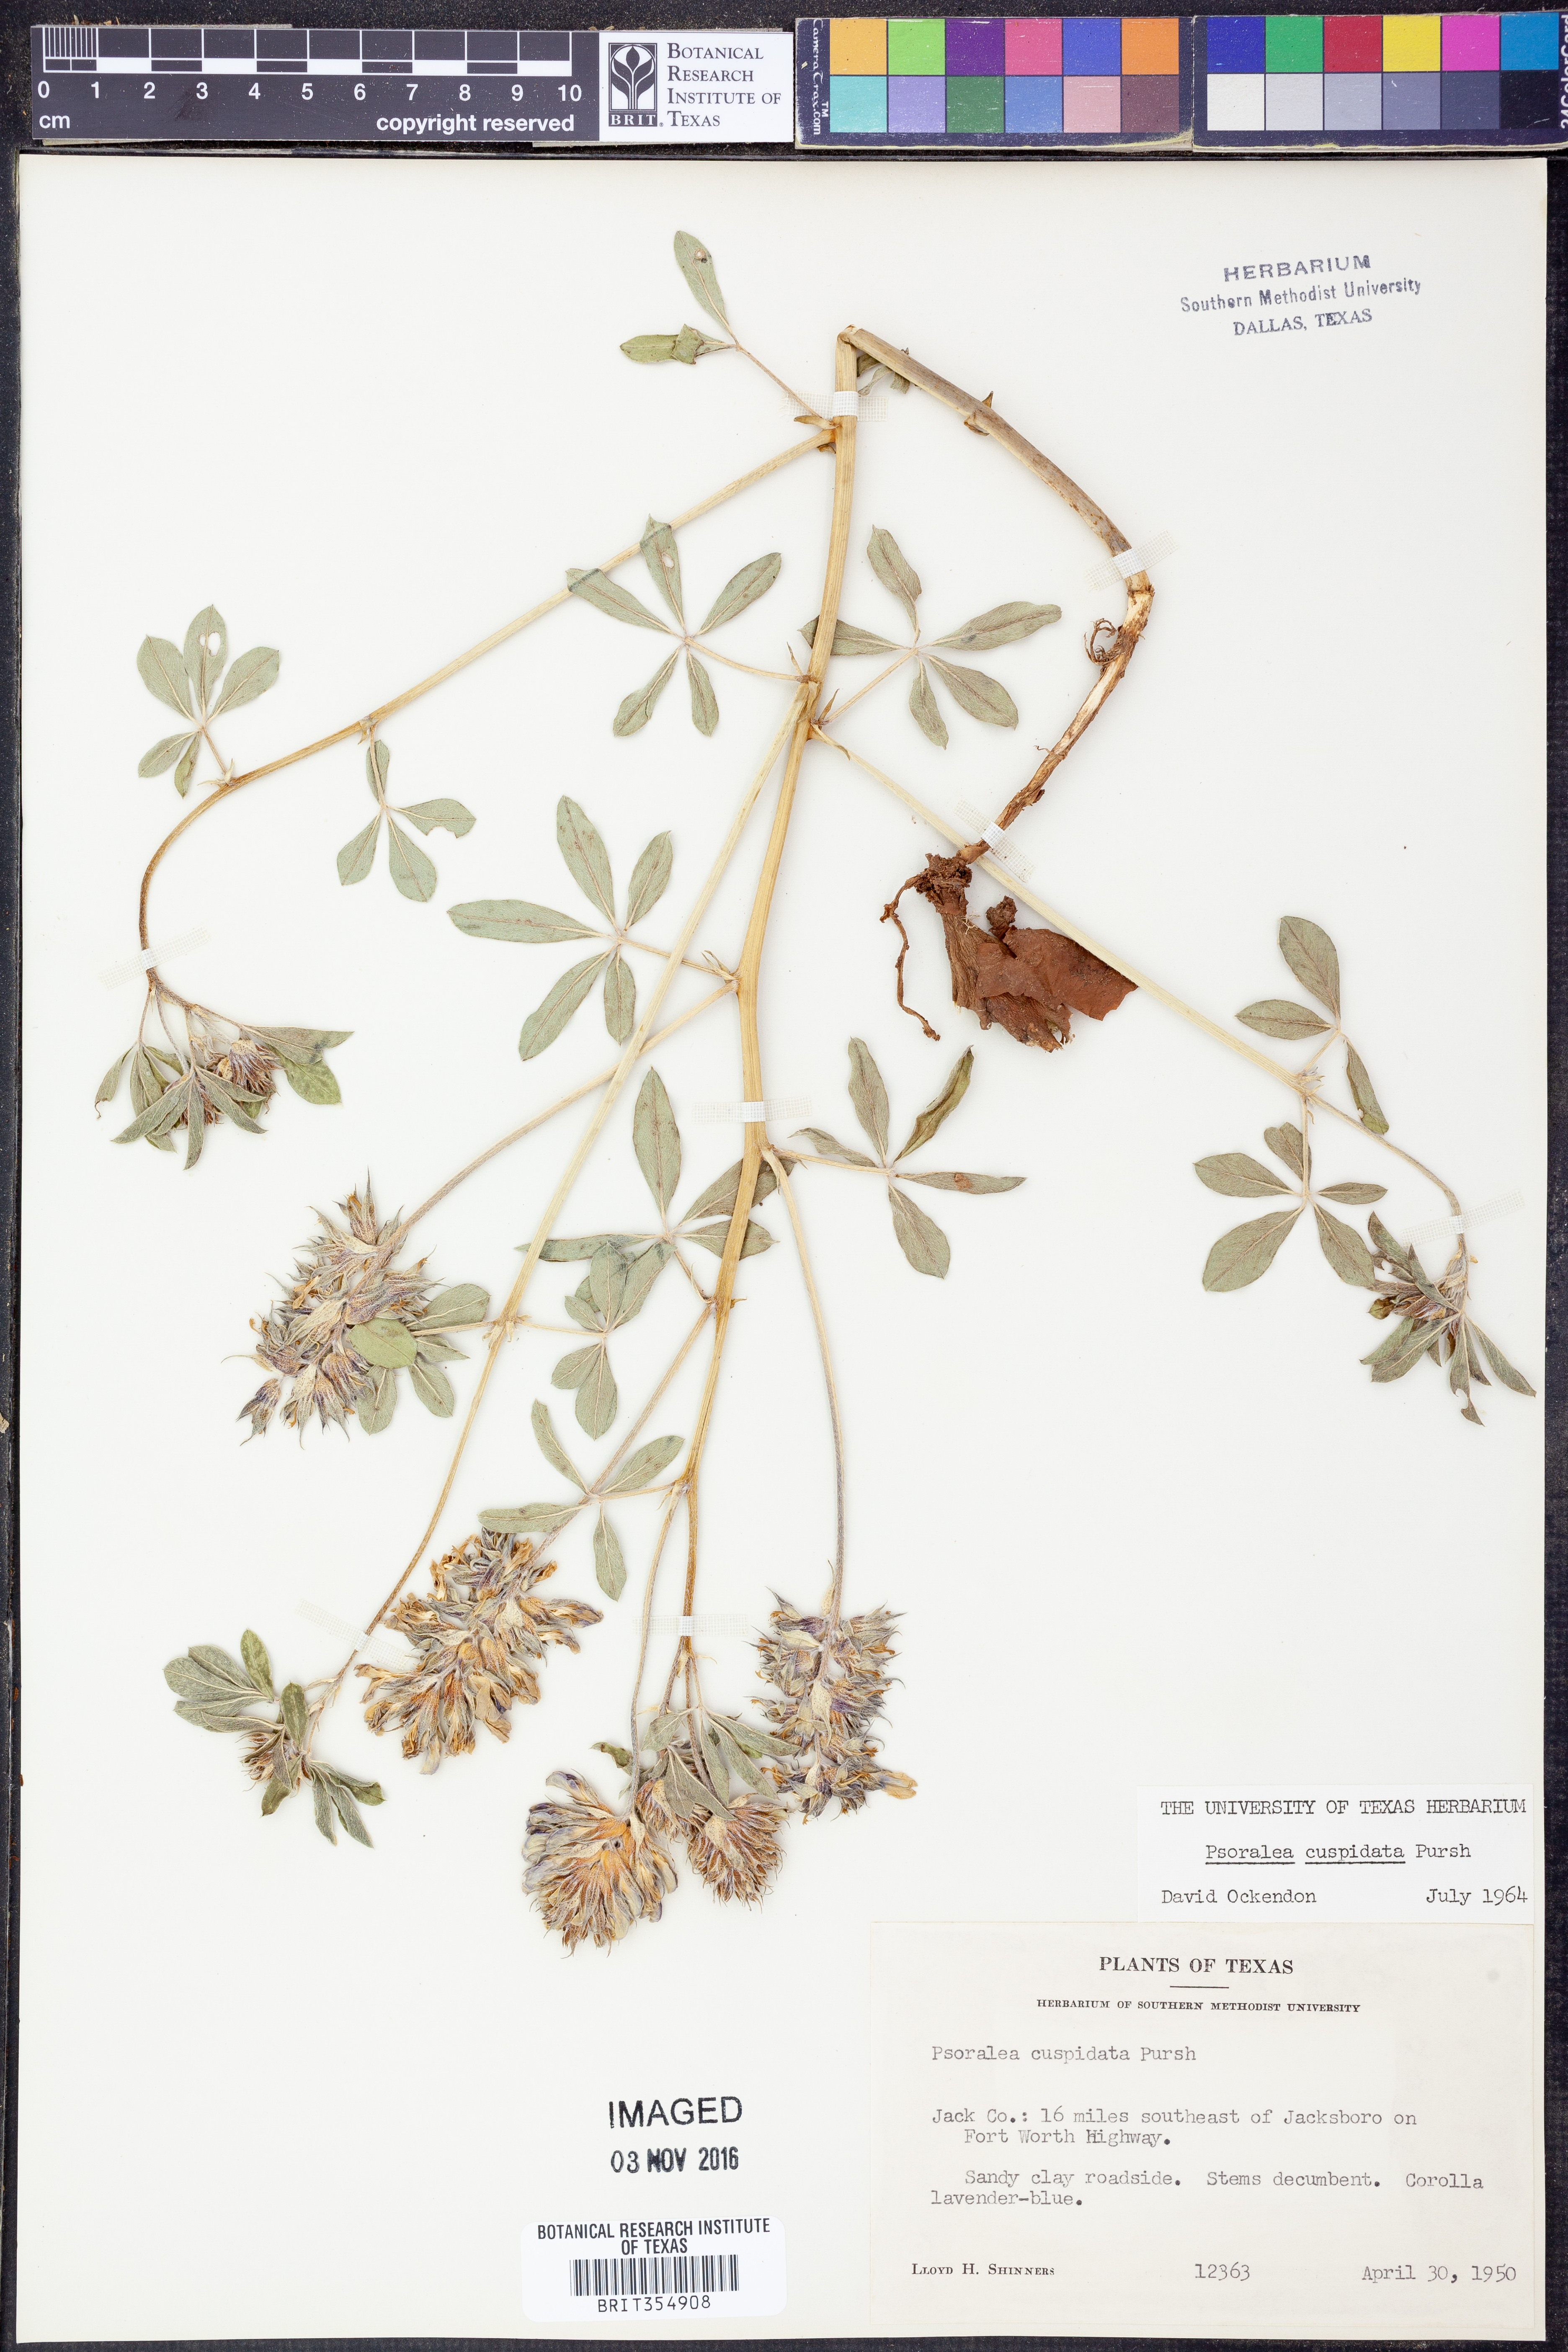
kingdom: Plantae
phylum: Tracheophyta
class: Magnoliopsida
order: Fabales
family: Fabaceae
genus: Pediomelum
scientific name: Pediomelum cuspidatum
